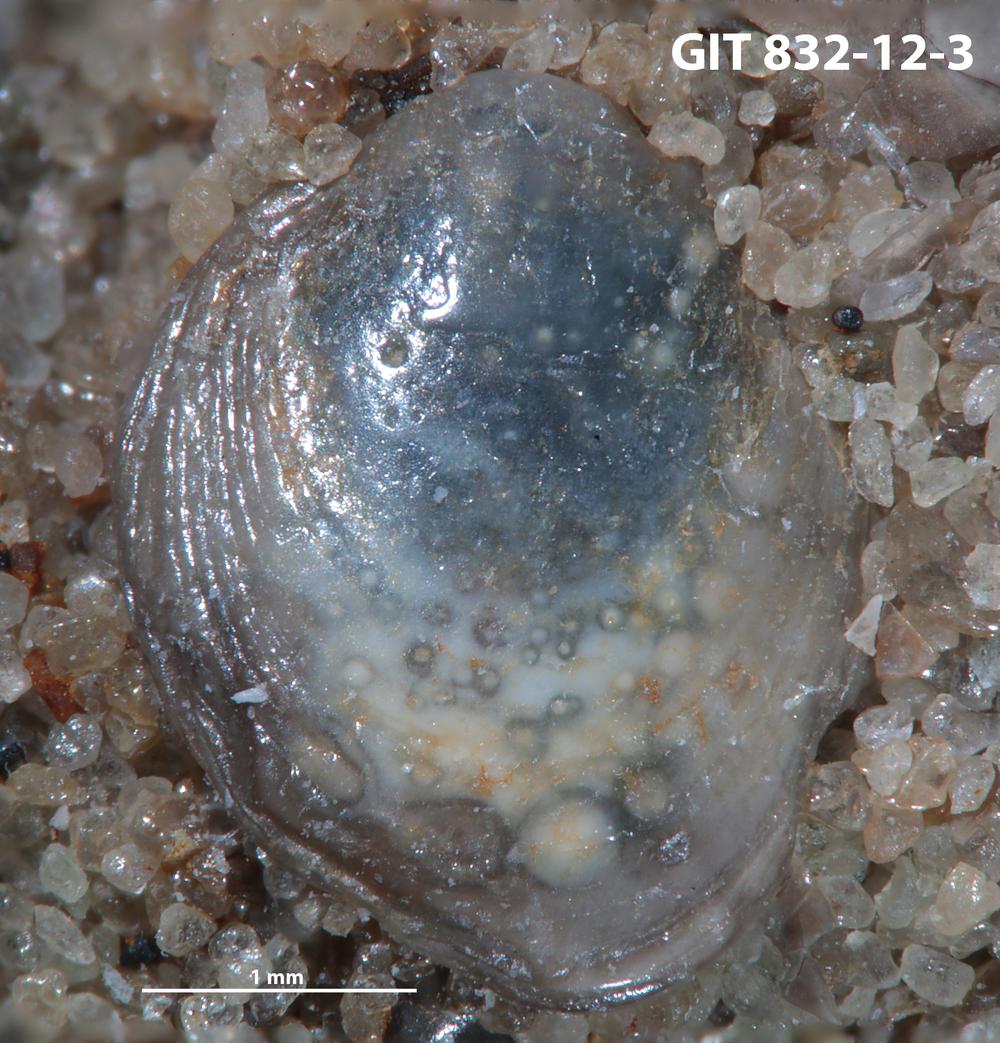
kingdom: Animalia
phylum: Brachiopoda
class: Lingulata
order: Lingulida
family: Obolidae
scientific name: Obolidae
